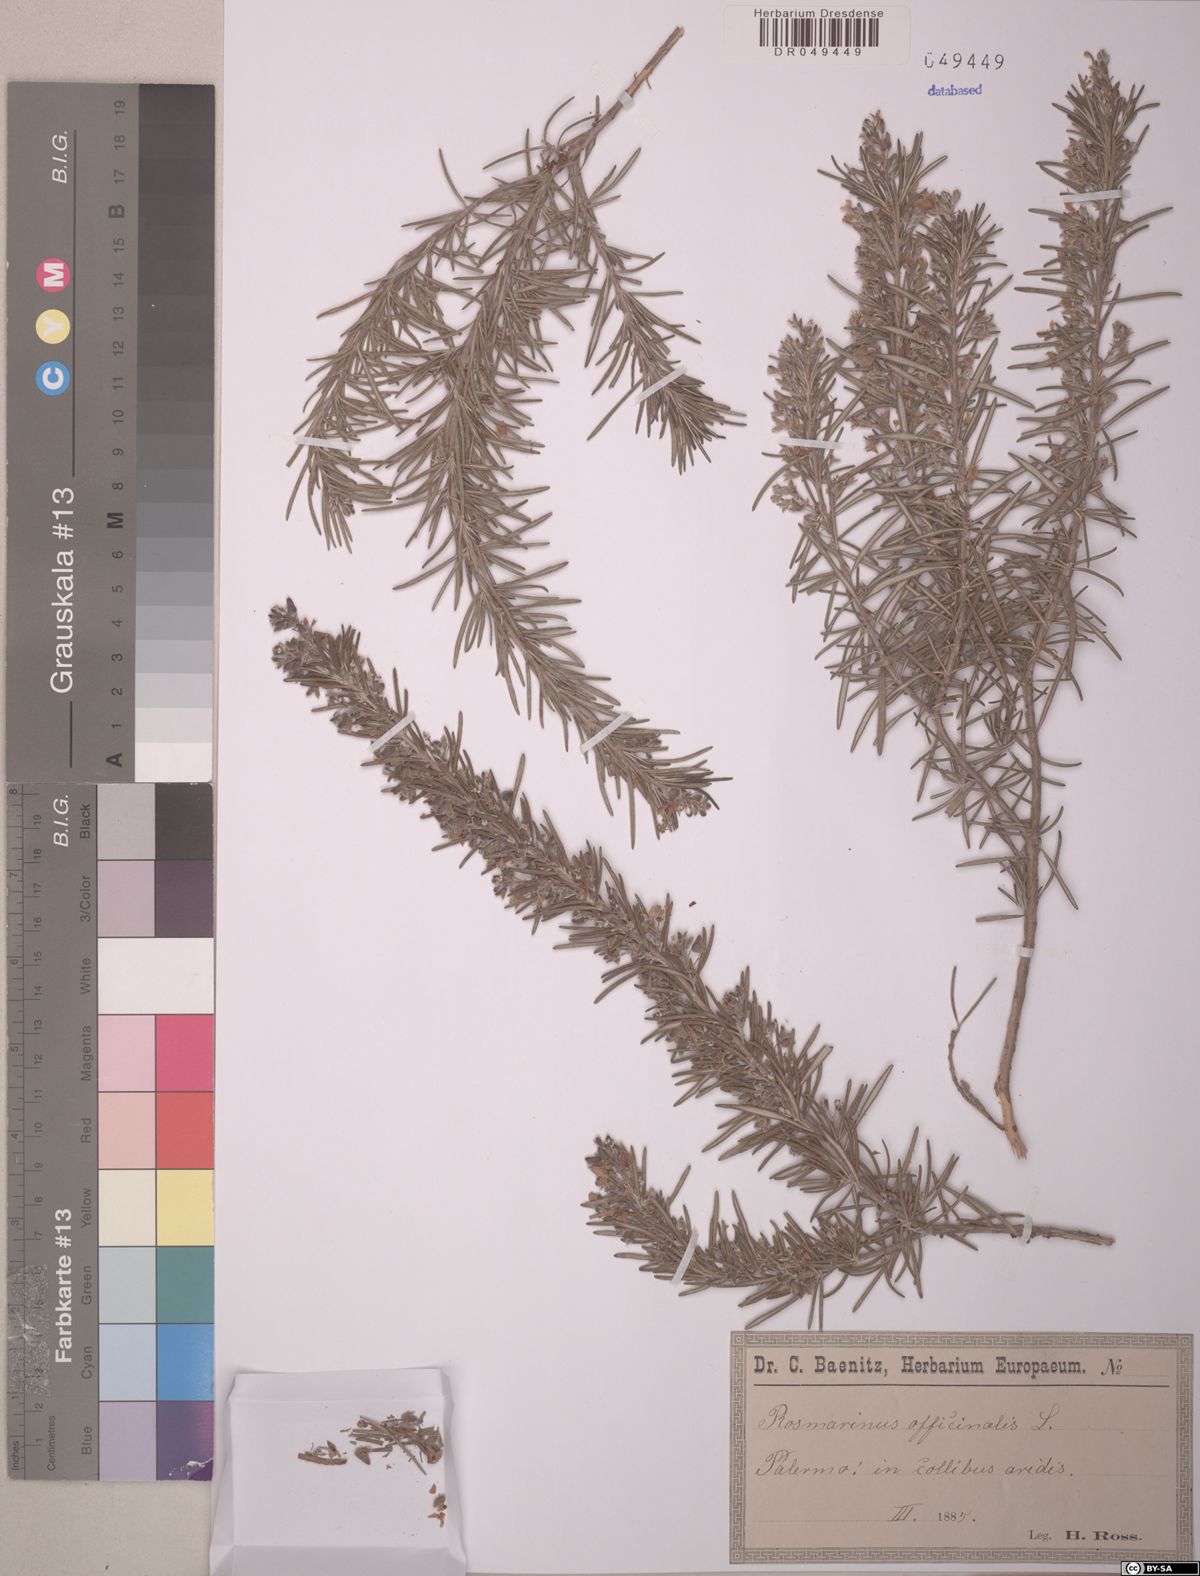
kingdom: Plantae
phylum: Tracheophyta
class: Magnoliopsida
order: Lamiales
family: Lamiaceae
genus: Salvia
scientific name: Salvia rosmarinus
